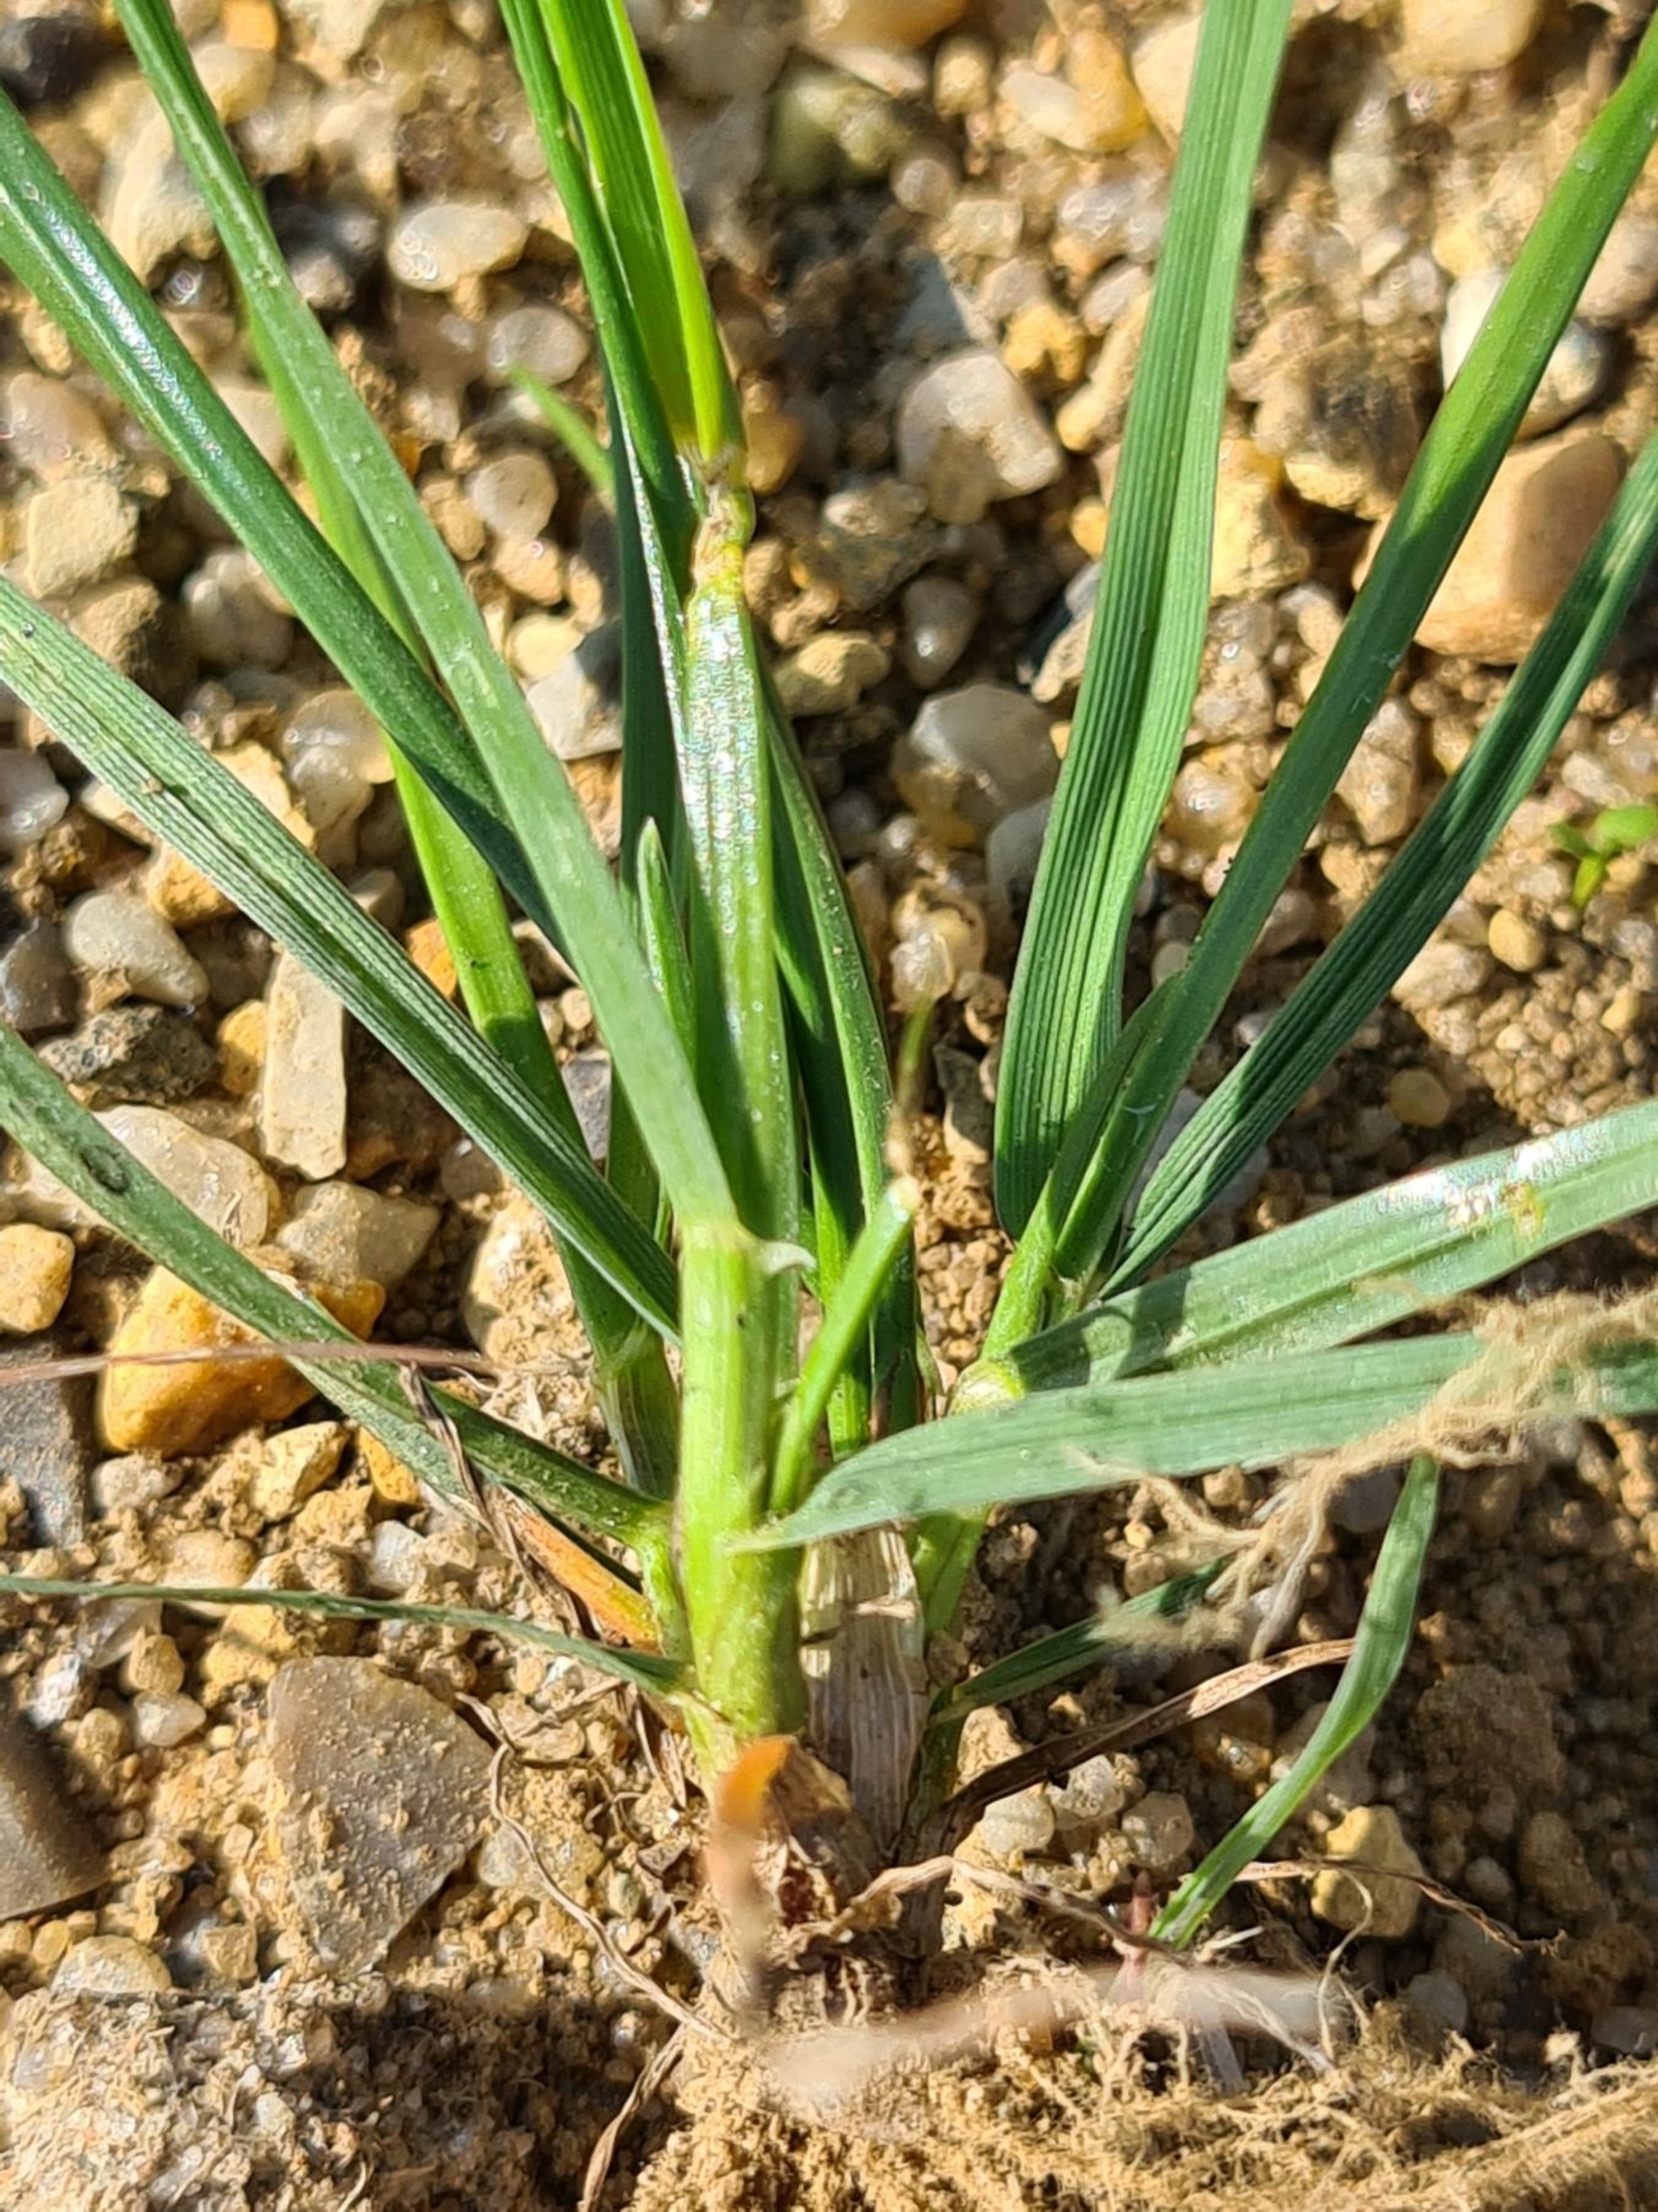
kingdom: Plantae
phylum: Tracheophyta
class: Liliopsida
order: Poales
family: Poaceae
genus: Lolium
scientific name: Lolium perenne
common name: Almindelig rajgræs
